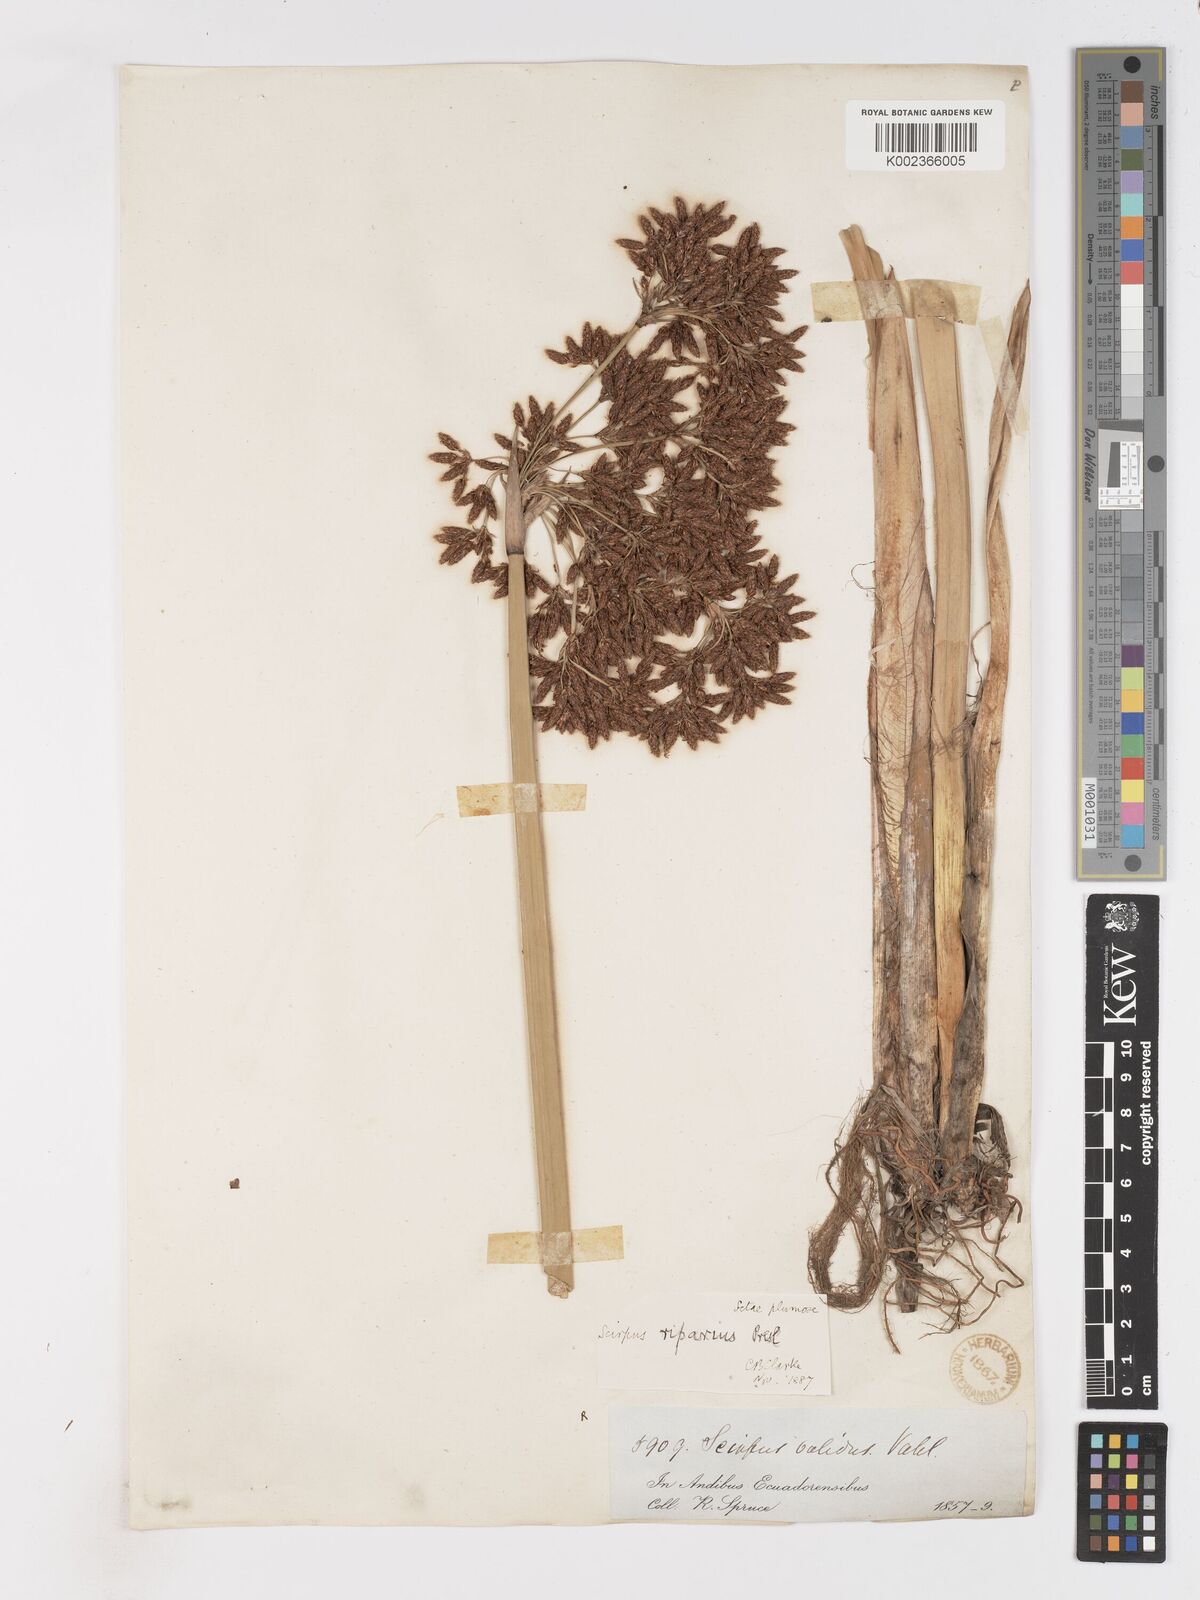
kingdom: Plantae
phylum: Tracheophyta
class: Liliopsida
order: Poales
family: Cyperaceae
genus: Schoenoplectus
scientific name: Schoenoplectus californicus
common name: California bulrush
